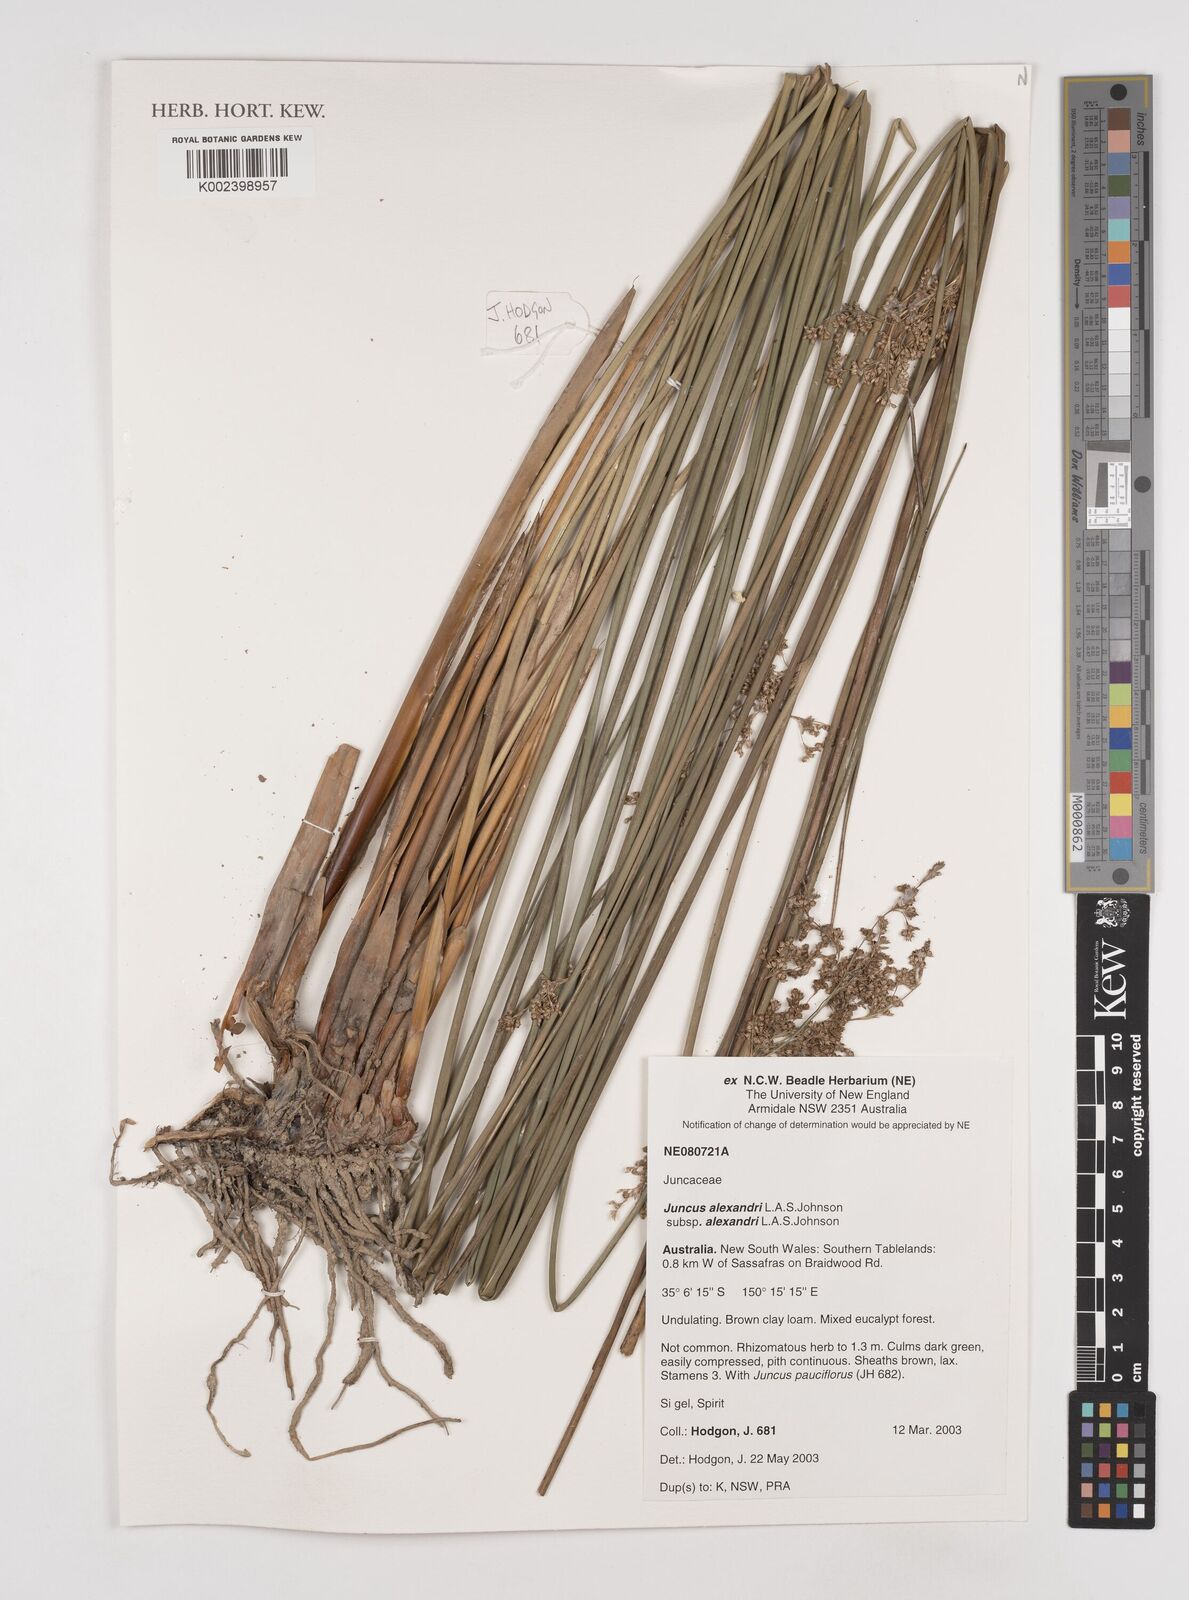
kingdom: Plantae
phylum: Tracheophyta
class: Liliopsida
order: Poales
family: Juncaceae
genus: Juncus
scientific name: Juncus alexandri
